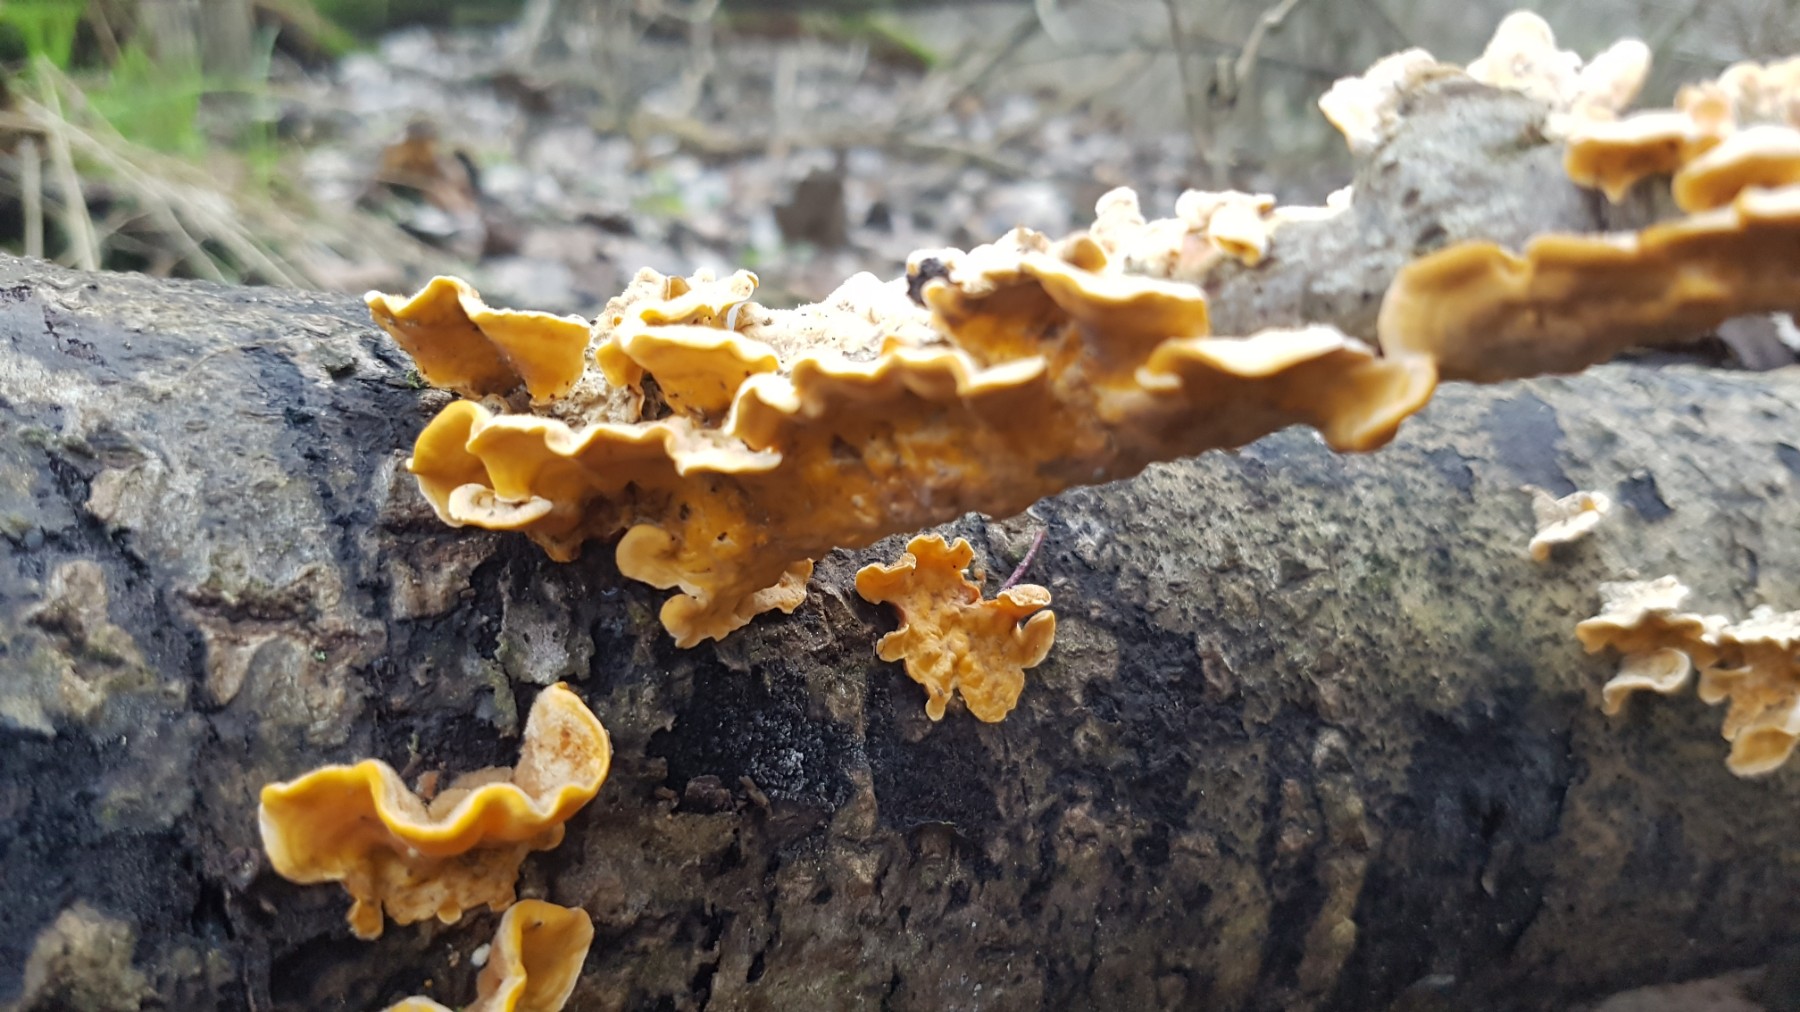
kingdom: Fungi
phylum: Basidiomycota
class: Agaricomycetes
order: Russulales
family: Stereaceae
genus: Stereum
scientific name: Stereum hirsutum
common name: håret lædersvamp
